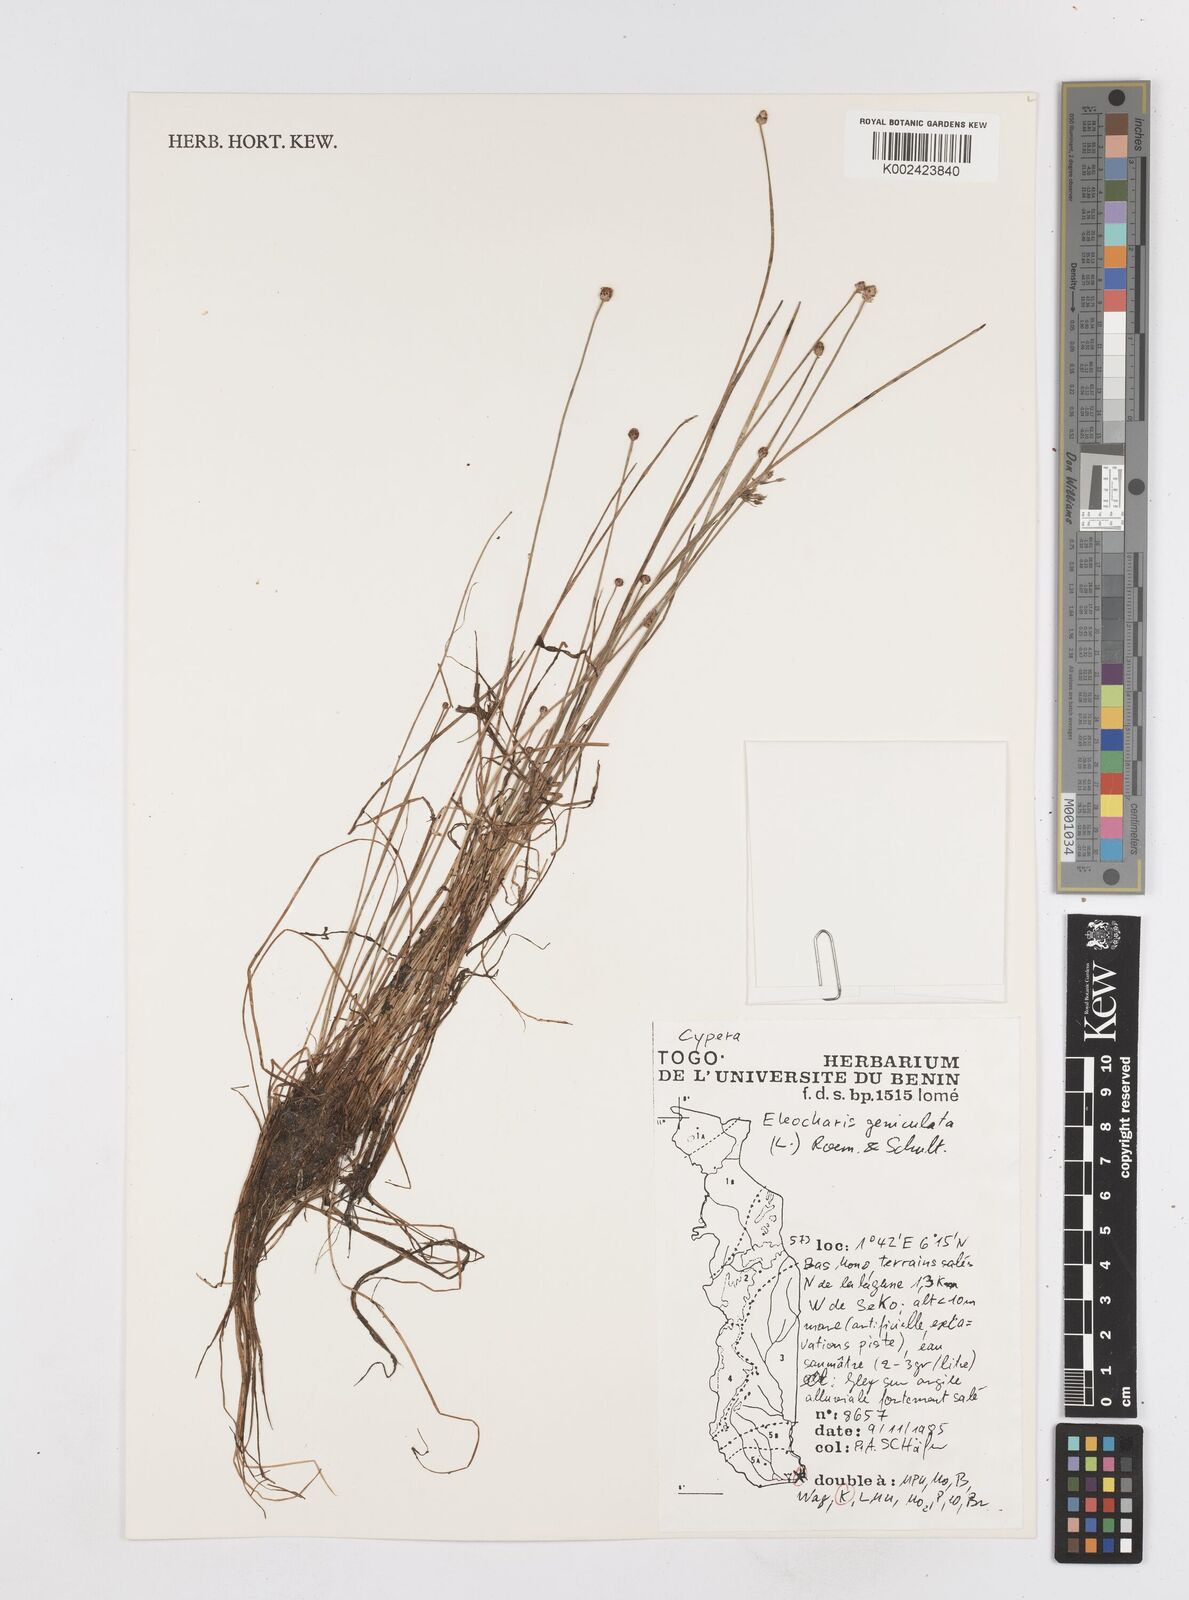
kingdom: Plantae
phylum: Tracheophyta
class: Liliopsida
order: Poales
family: Cyperaceae
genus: Eleocharis
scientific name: Eleocharis geniculata
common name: Canada spikesedge
